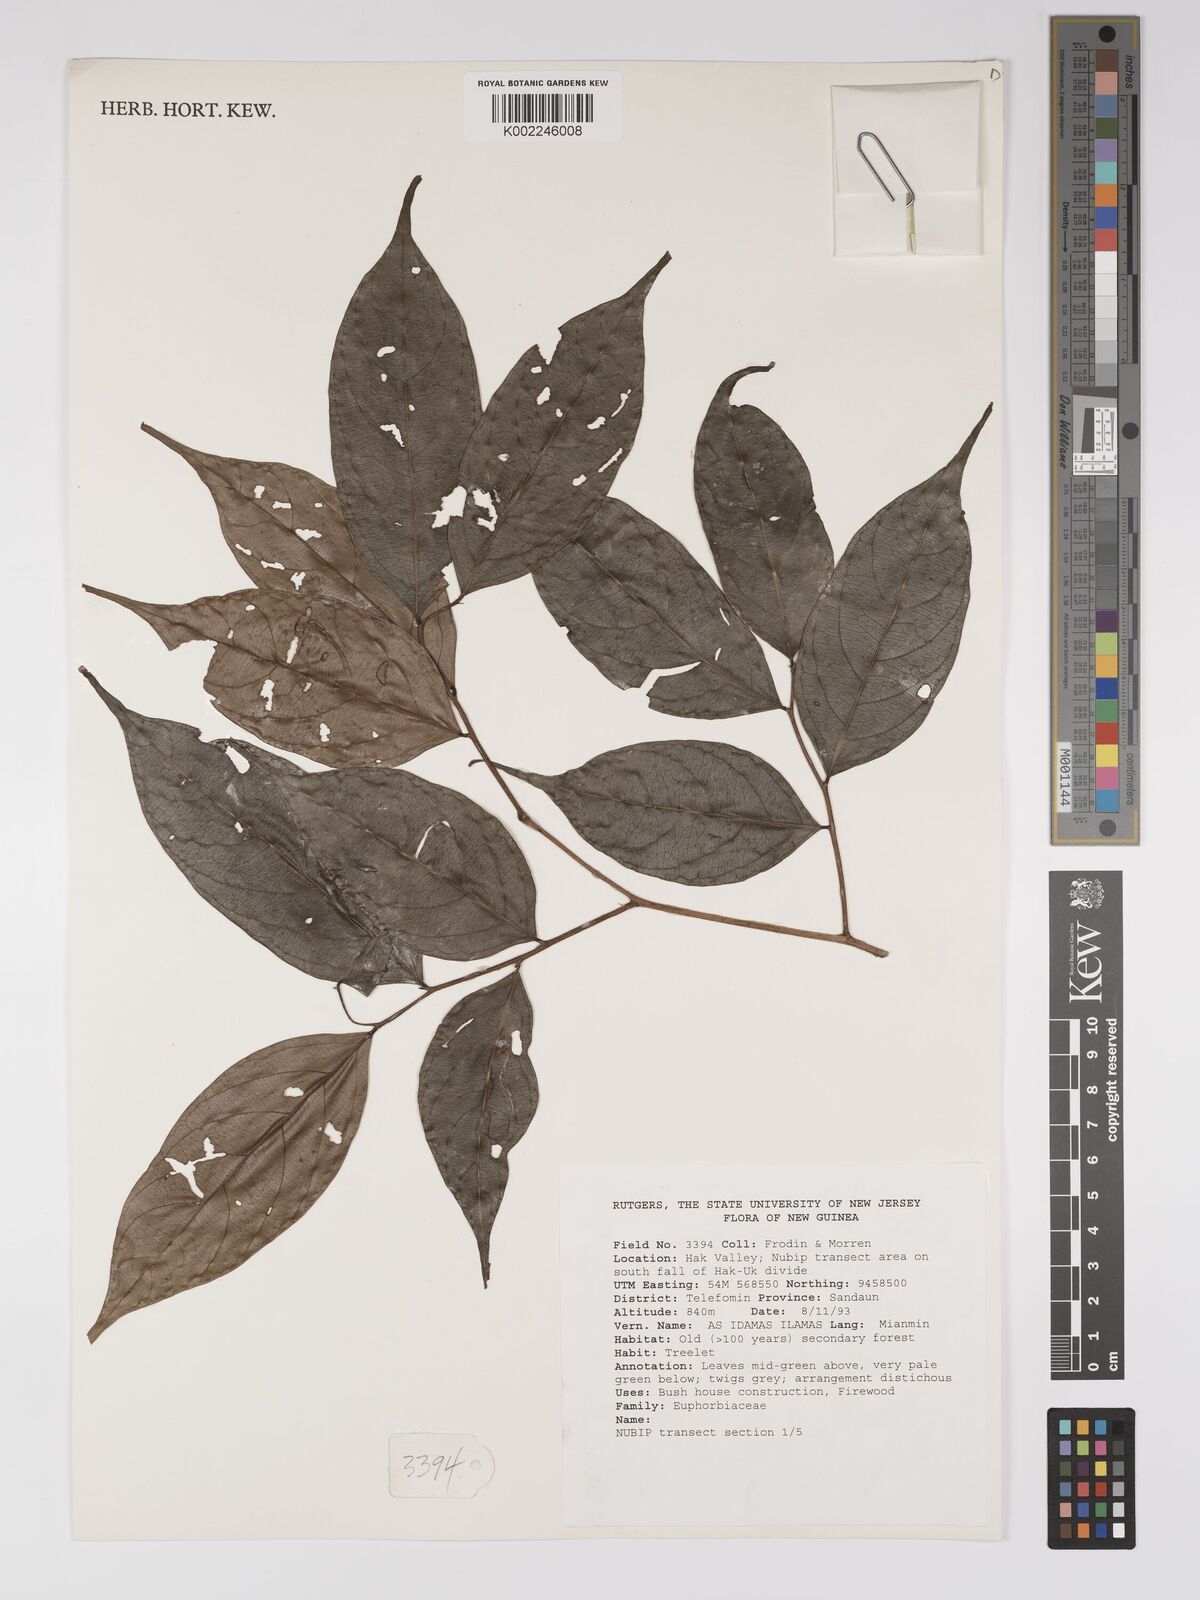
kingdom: Plantae
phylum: Tracheophyta
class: Magnoliopsida
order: Malpighiales
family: Euphorbiaceae
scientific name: Euphorbiaceae
